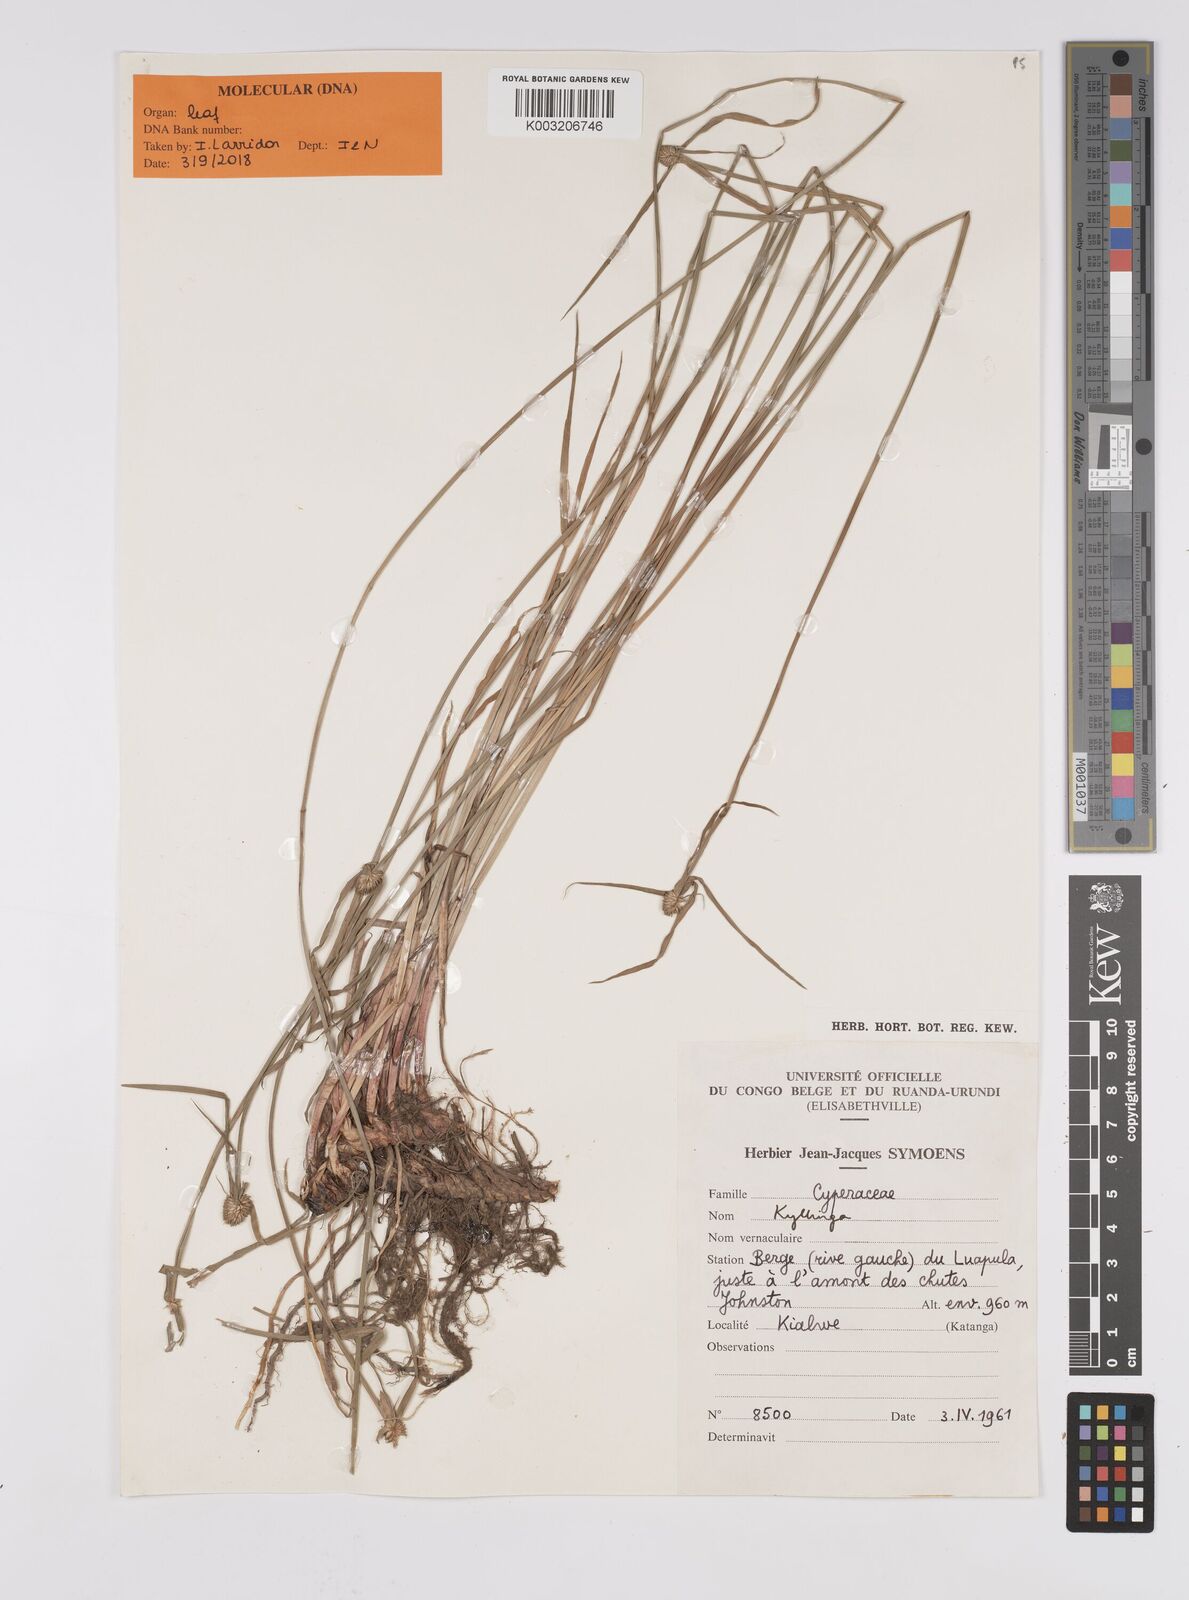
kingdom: Plantae
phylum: Tracheophyta
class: Liliopsida
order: Poales
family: Cyperaceae
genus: Cyperus
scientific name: Cyperus
